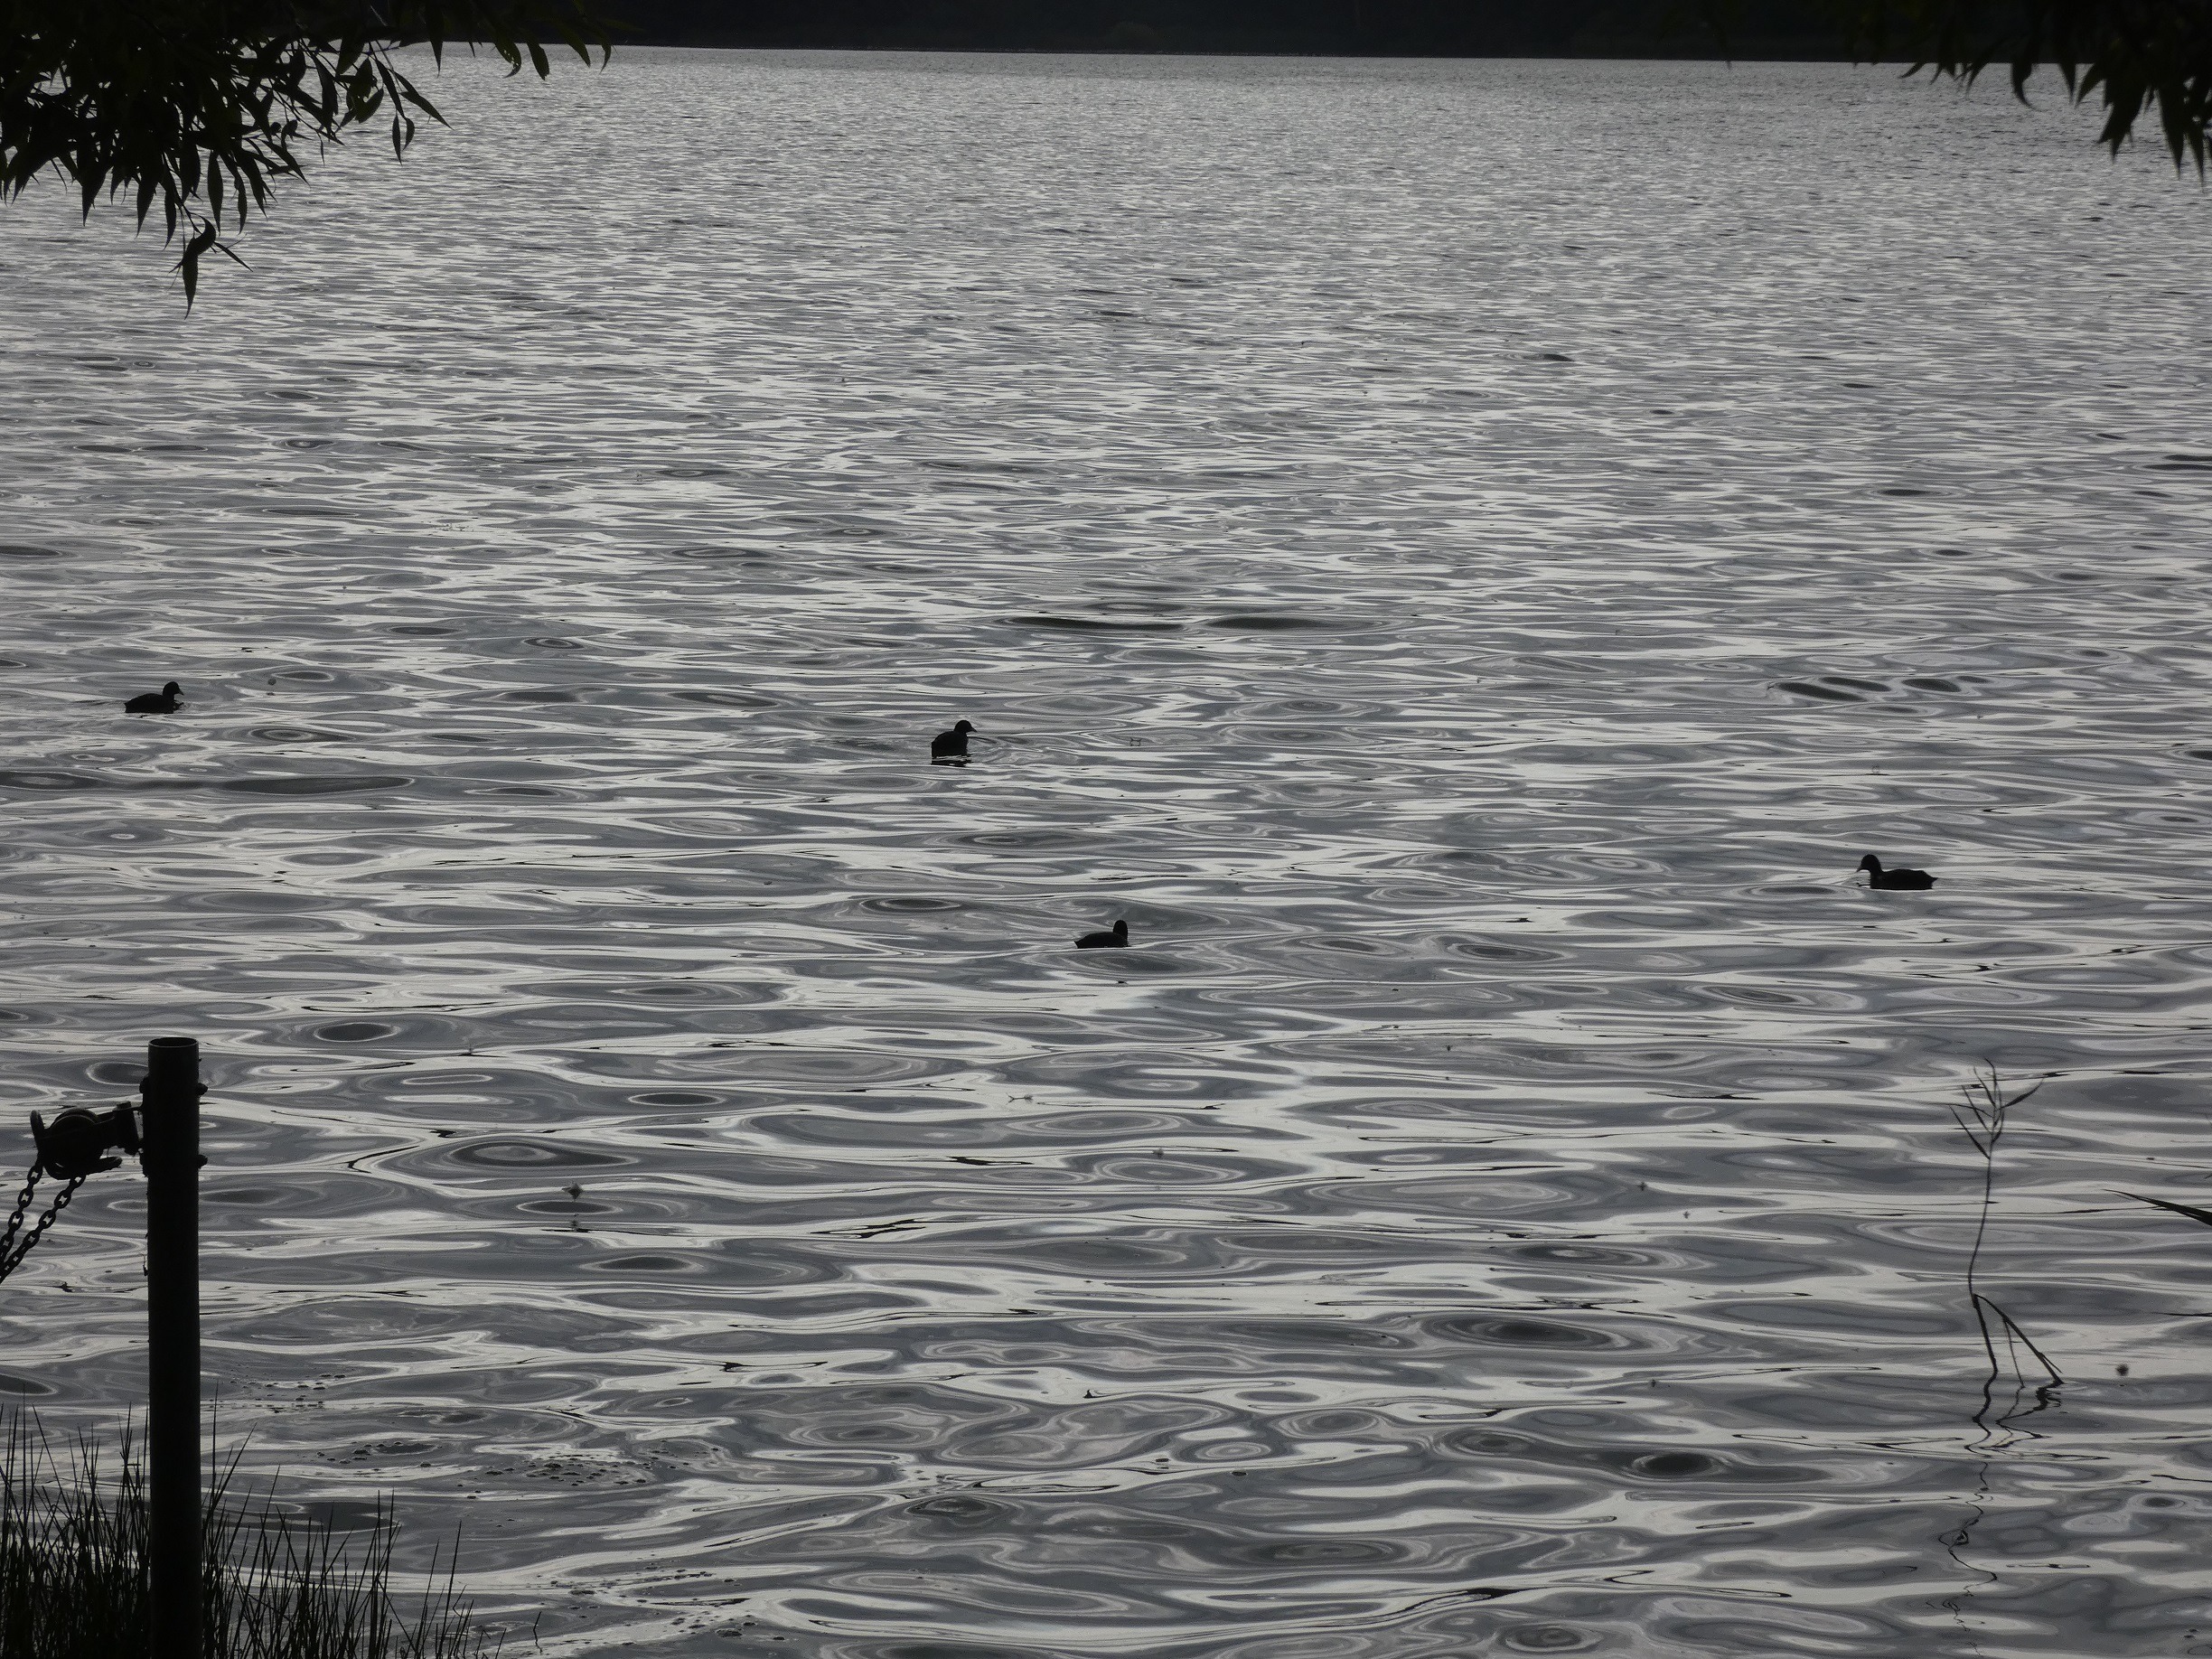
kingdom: Animalia
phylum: Chordata
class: Aves
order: Gruiformes
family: Rallidae
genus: Fulica
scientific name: Fulica atra
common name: Blishøne
